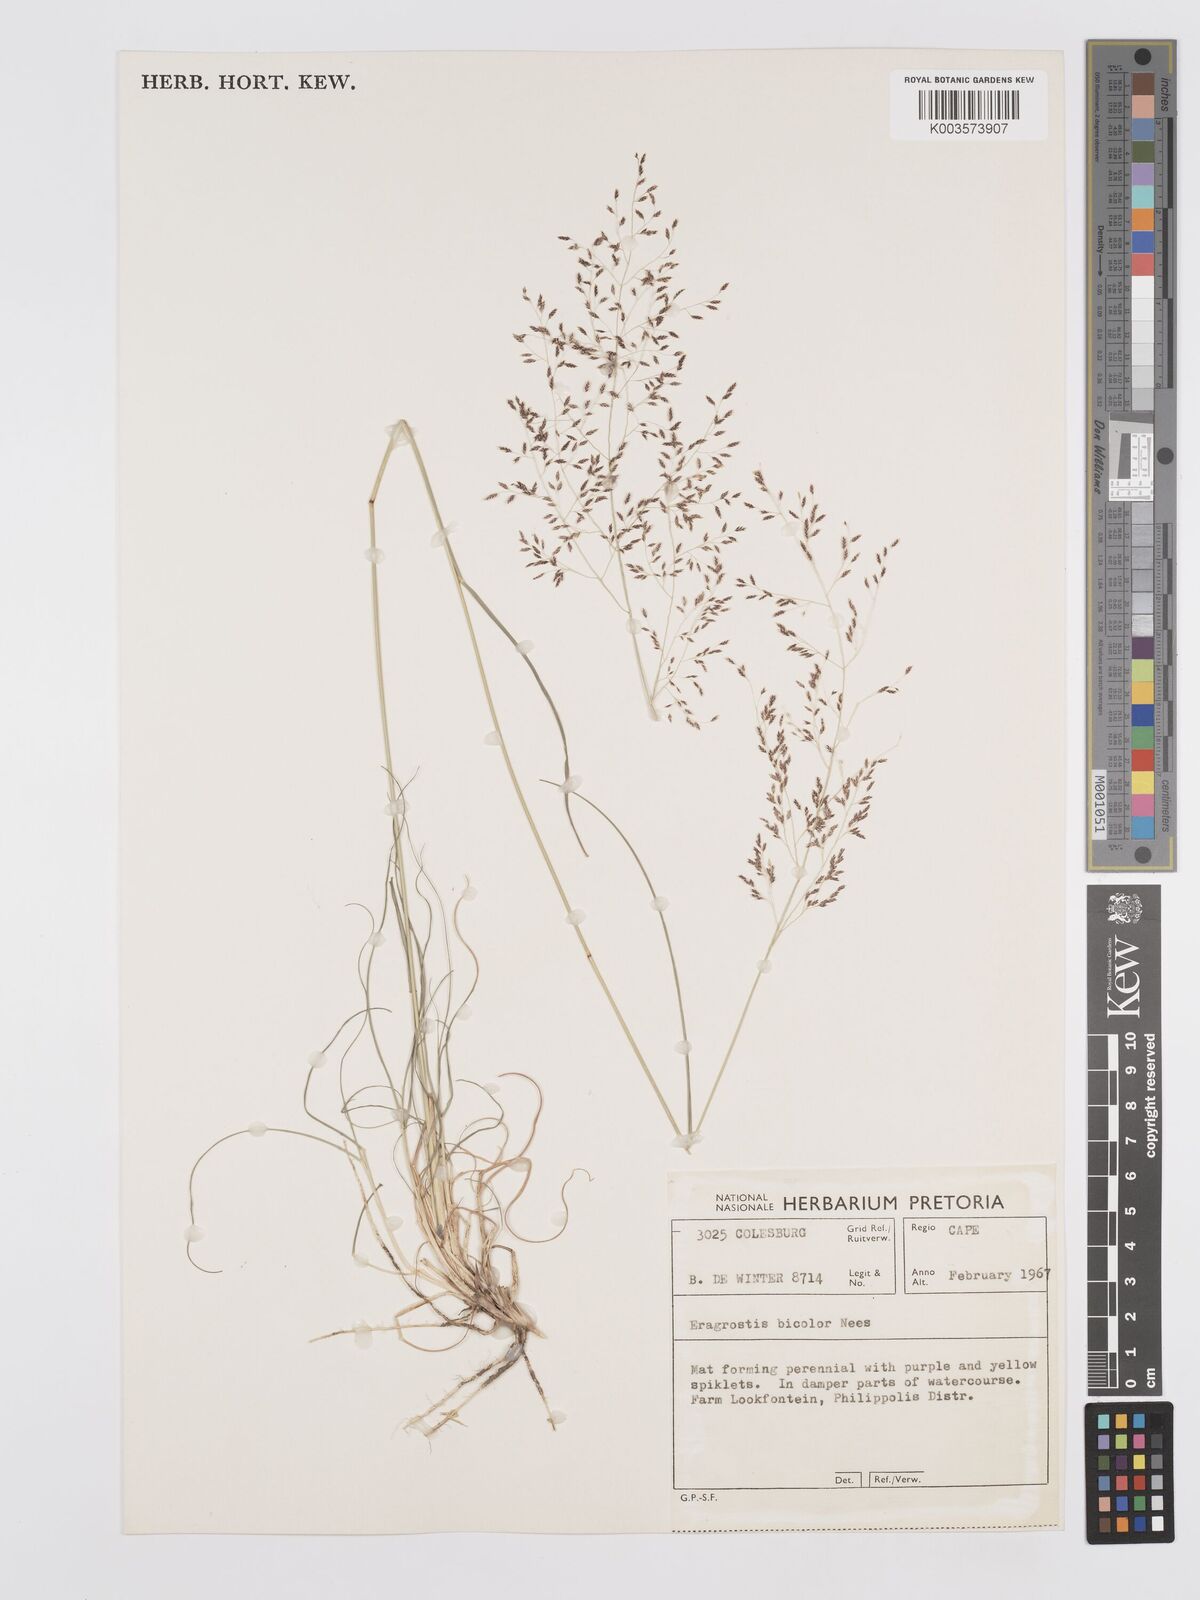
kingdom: Plantae
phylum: Tracheophyta
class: Liliopsida
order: Poales
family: Poaceae
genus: Eragrostis
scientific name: Eragrostis
